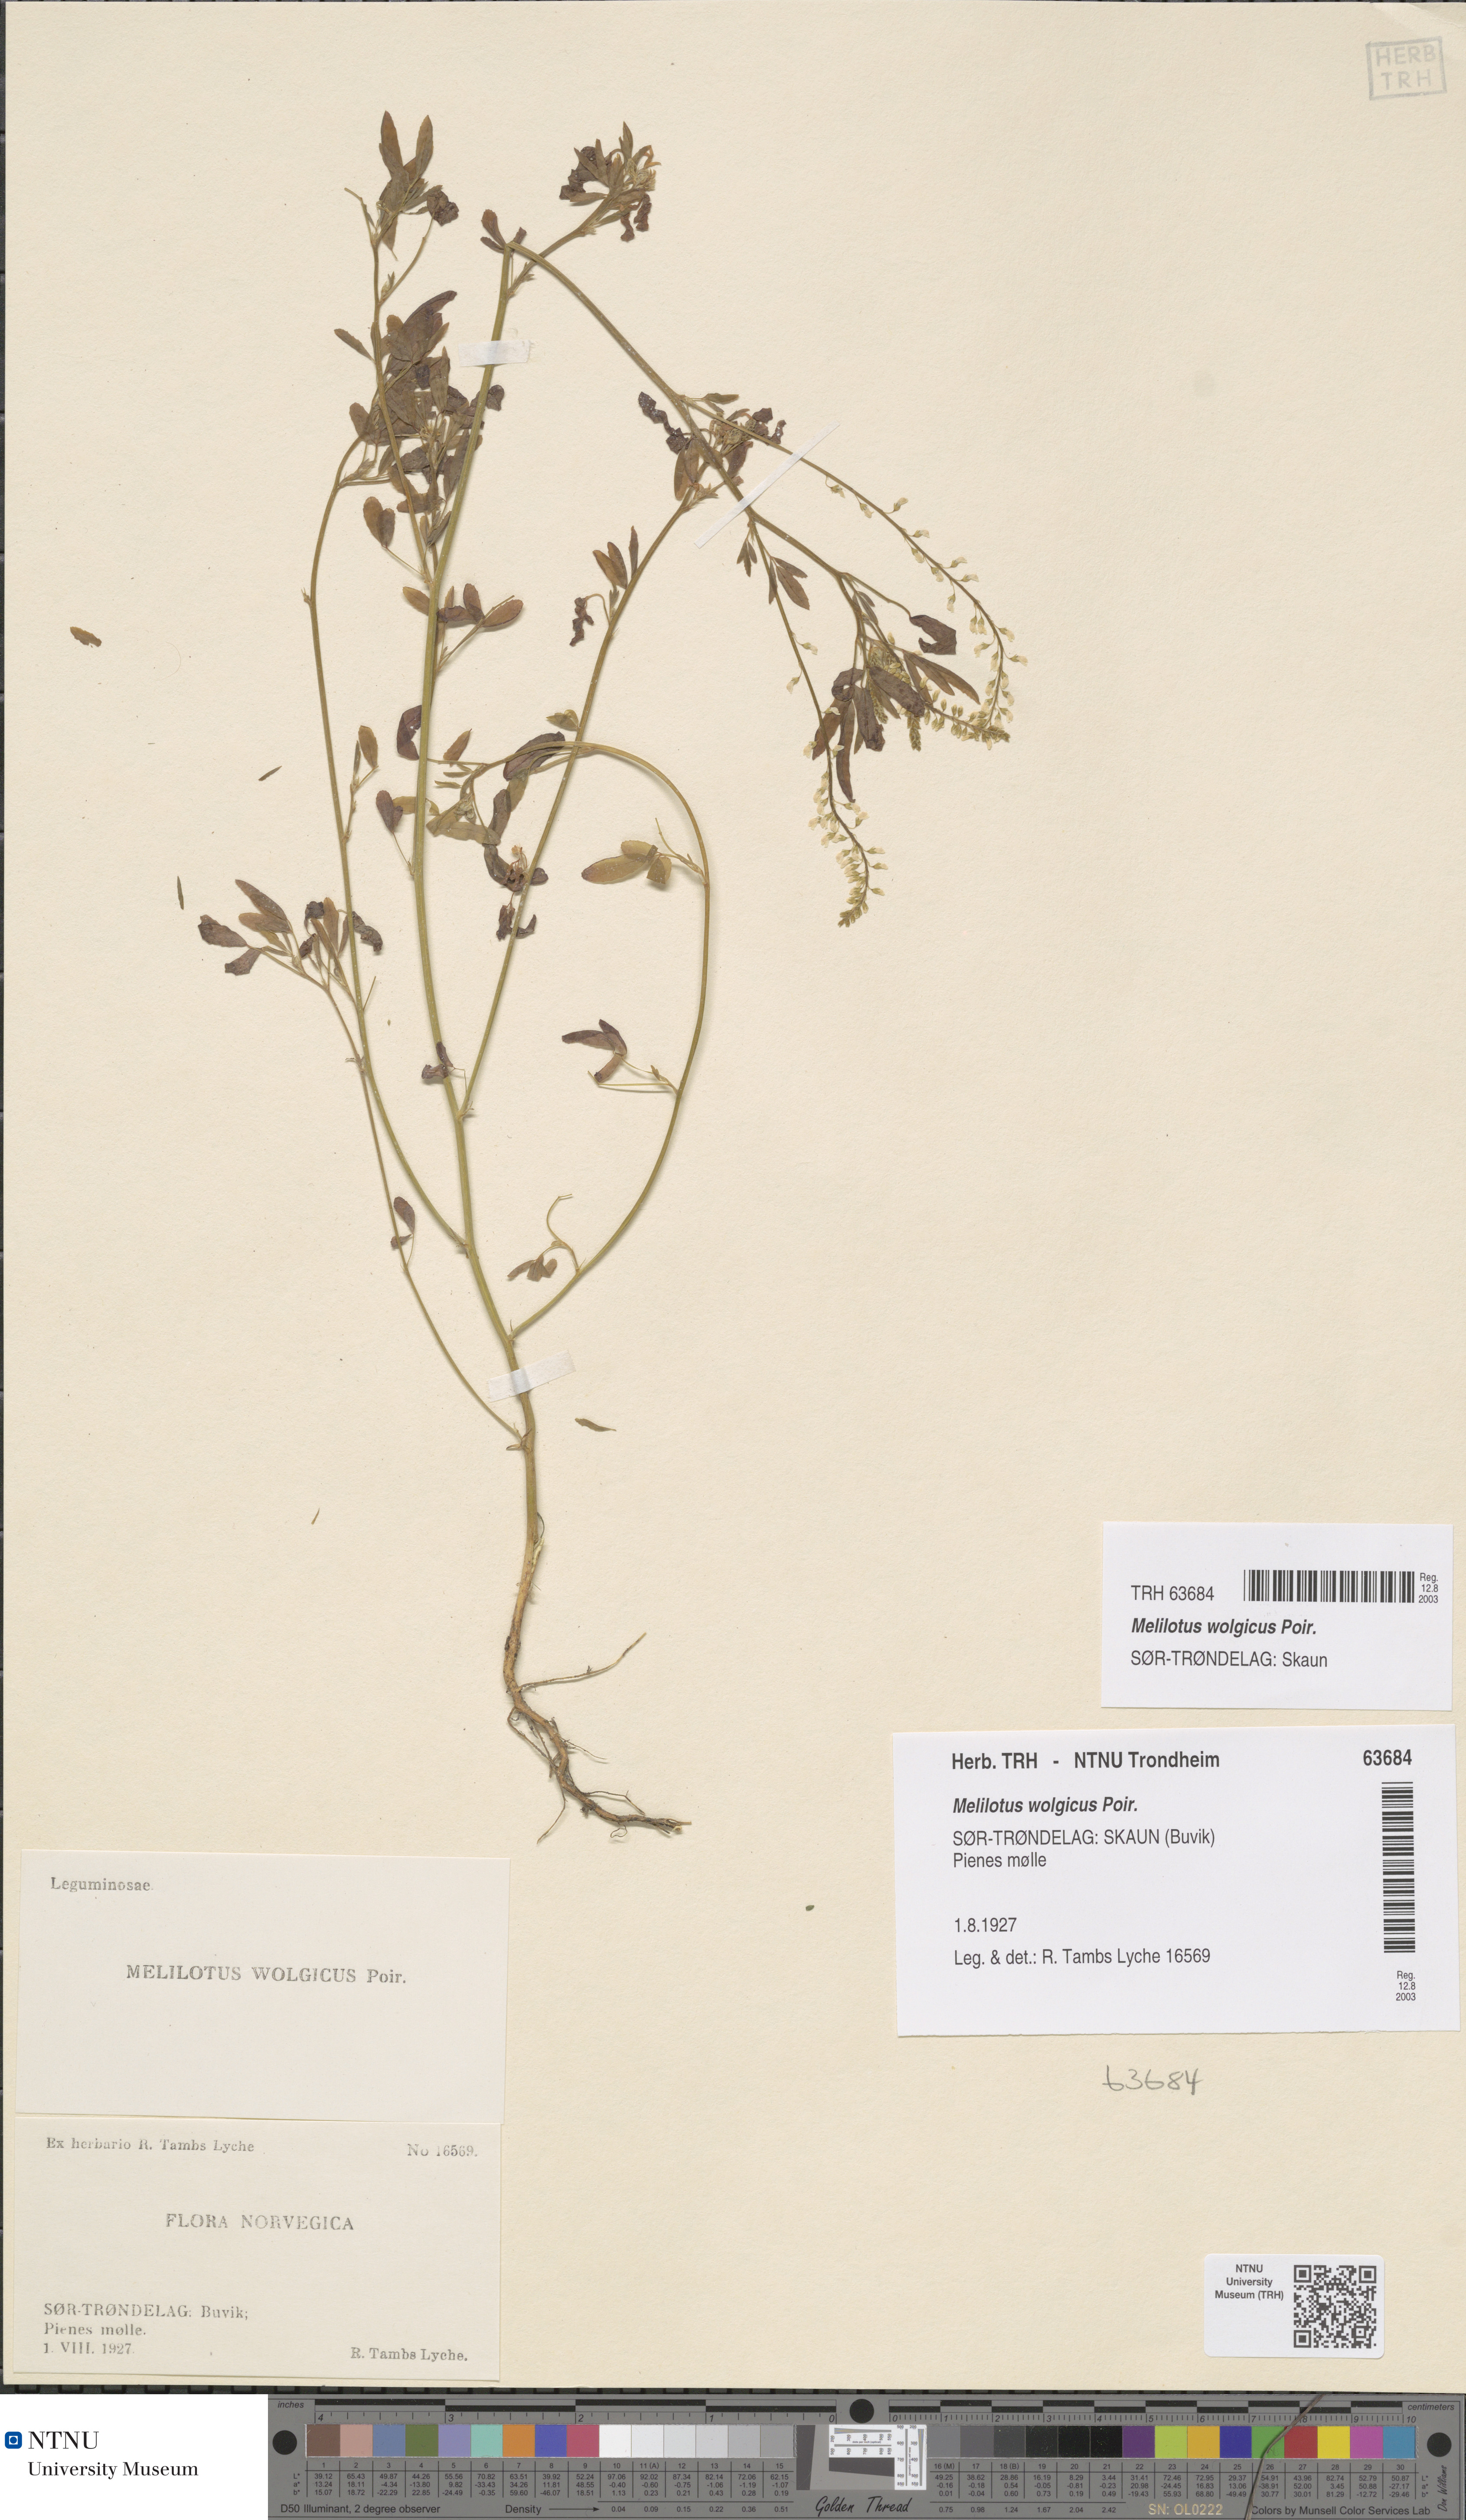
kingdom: Plantae
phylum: Tracheophyta
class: Magnoliopsida
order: Fabales
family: Fabaceae
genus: Melilotus
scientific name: Melilotus wolgicus
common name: Volga sweet-clover
